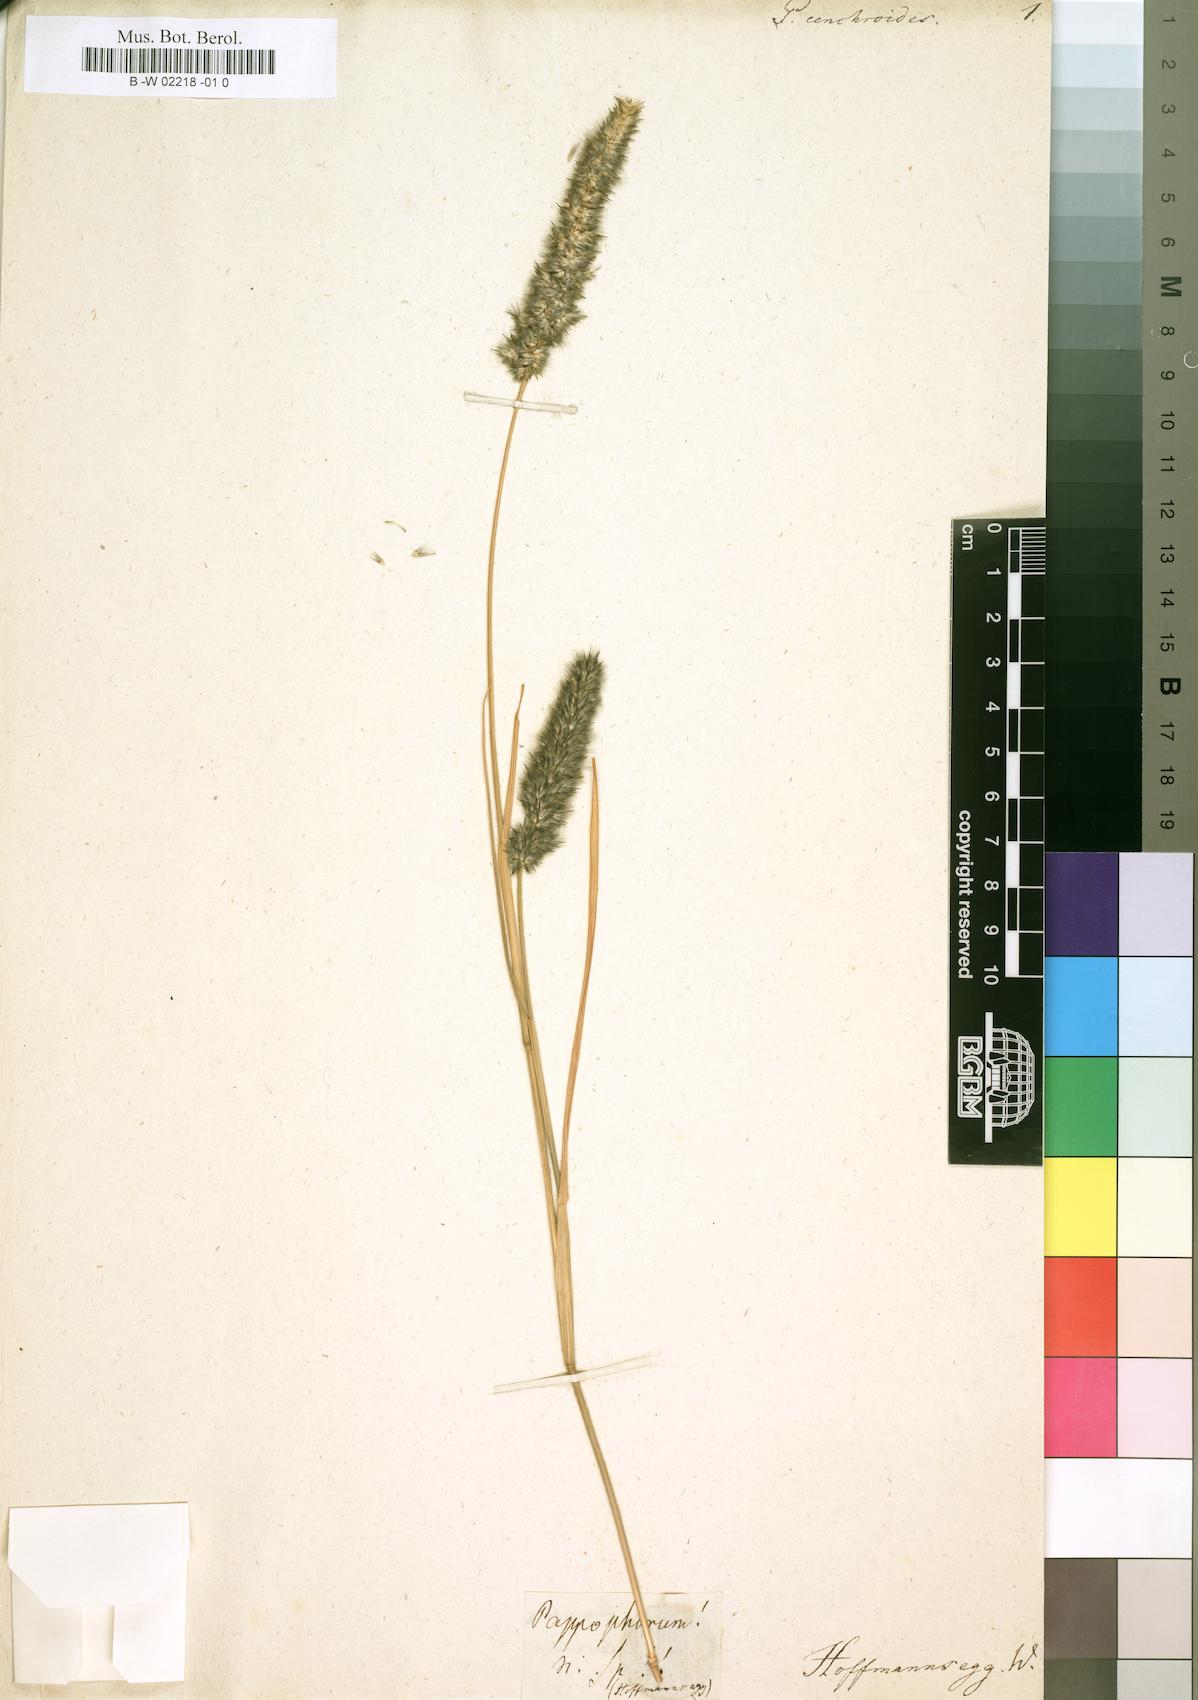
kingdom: Plantae
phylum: Tracheophyta
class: Liliopsida
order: Poales
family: Poaceae
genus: Ventenata
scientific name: Ventenata dubia
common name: North africa grass
